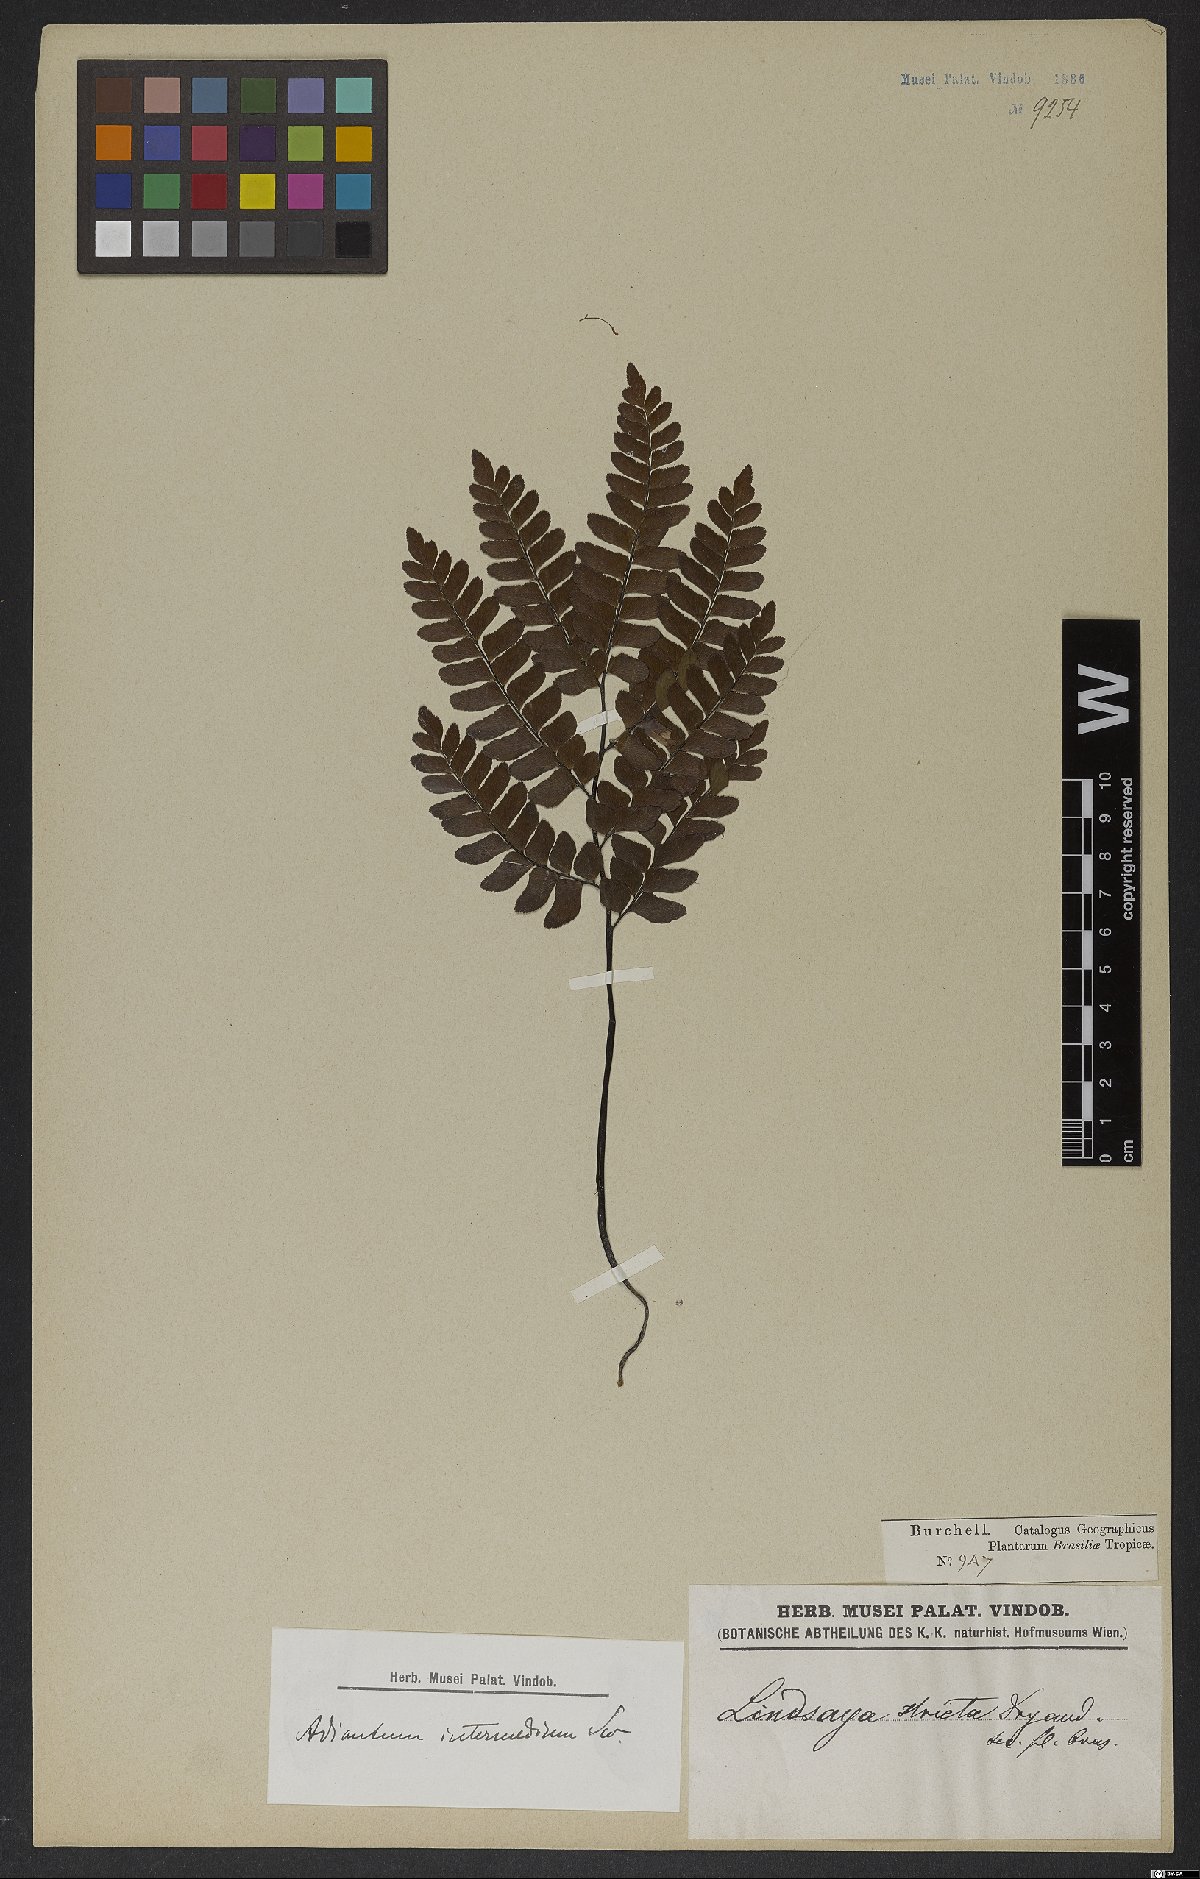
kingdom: Plantae
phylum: Tracheophyta
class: Polypodiopsida
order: Polypodiales
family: Pteridaceae
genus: Adiantum
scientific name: Adiantum intermedium
